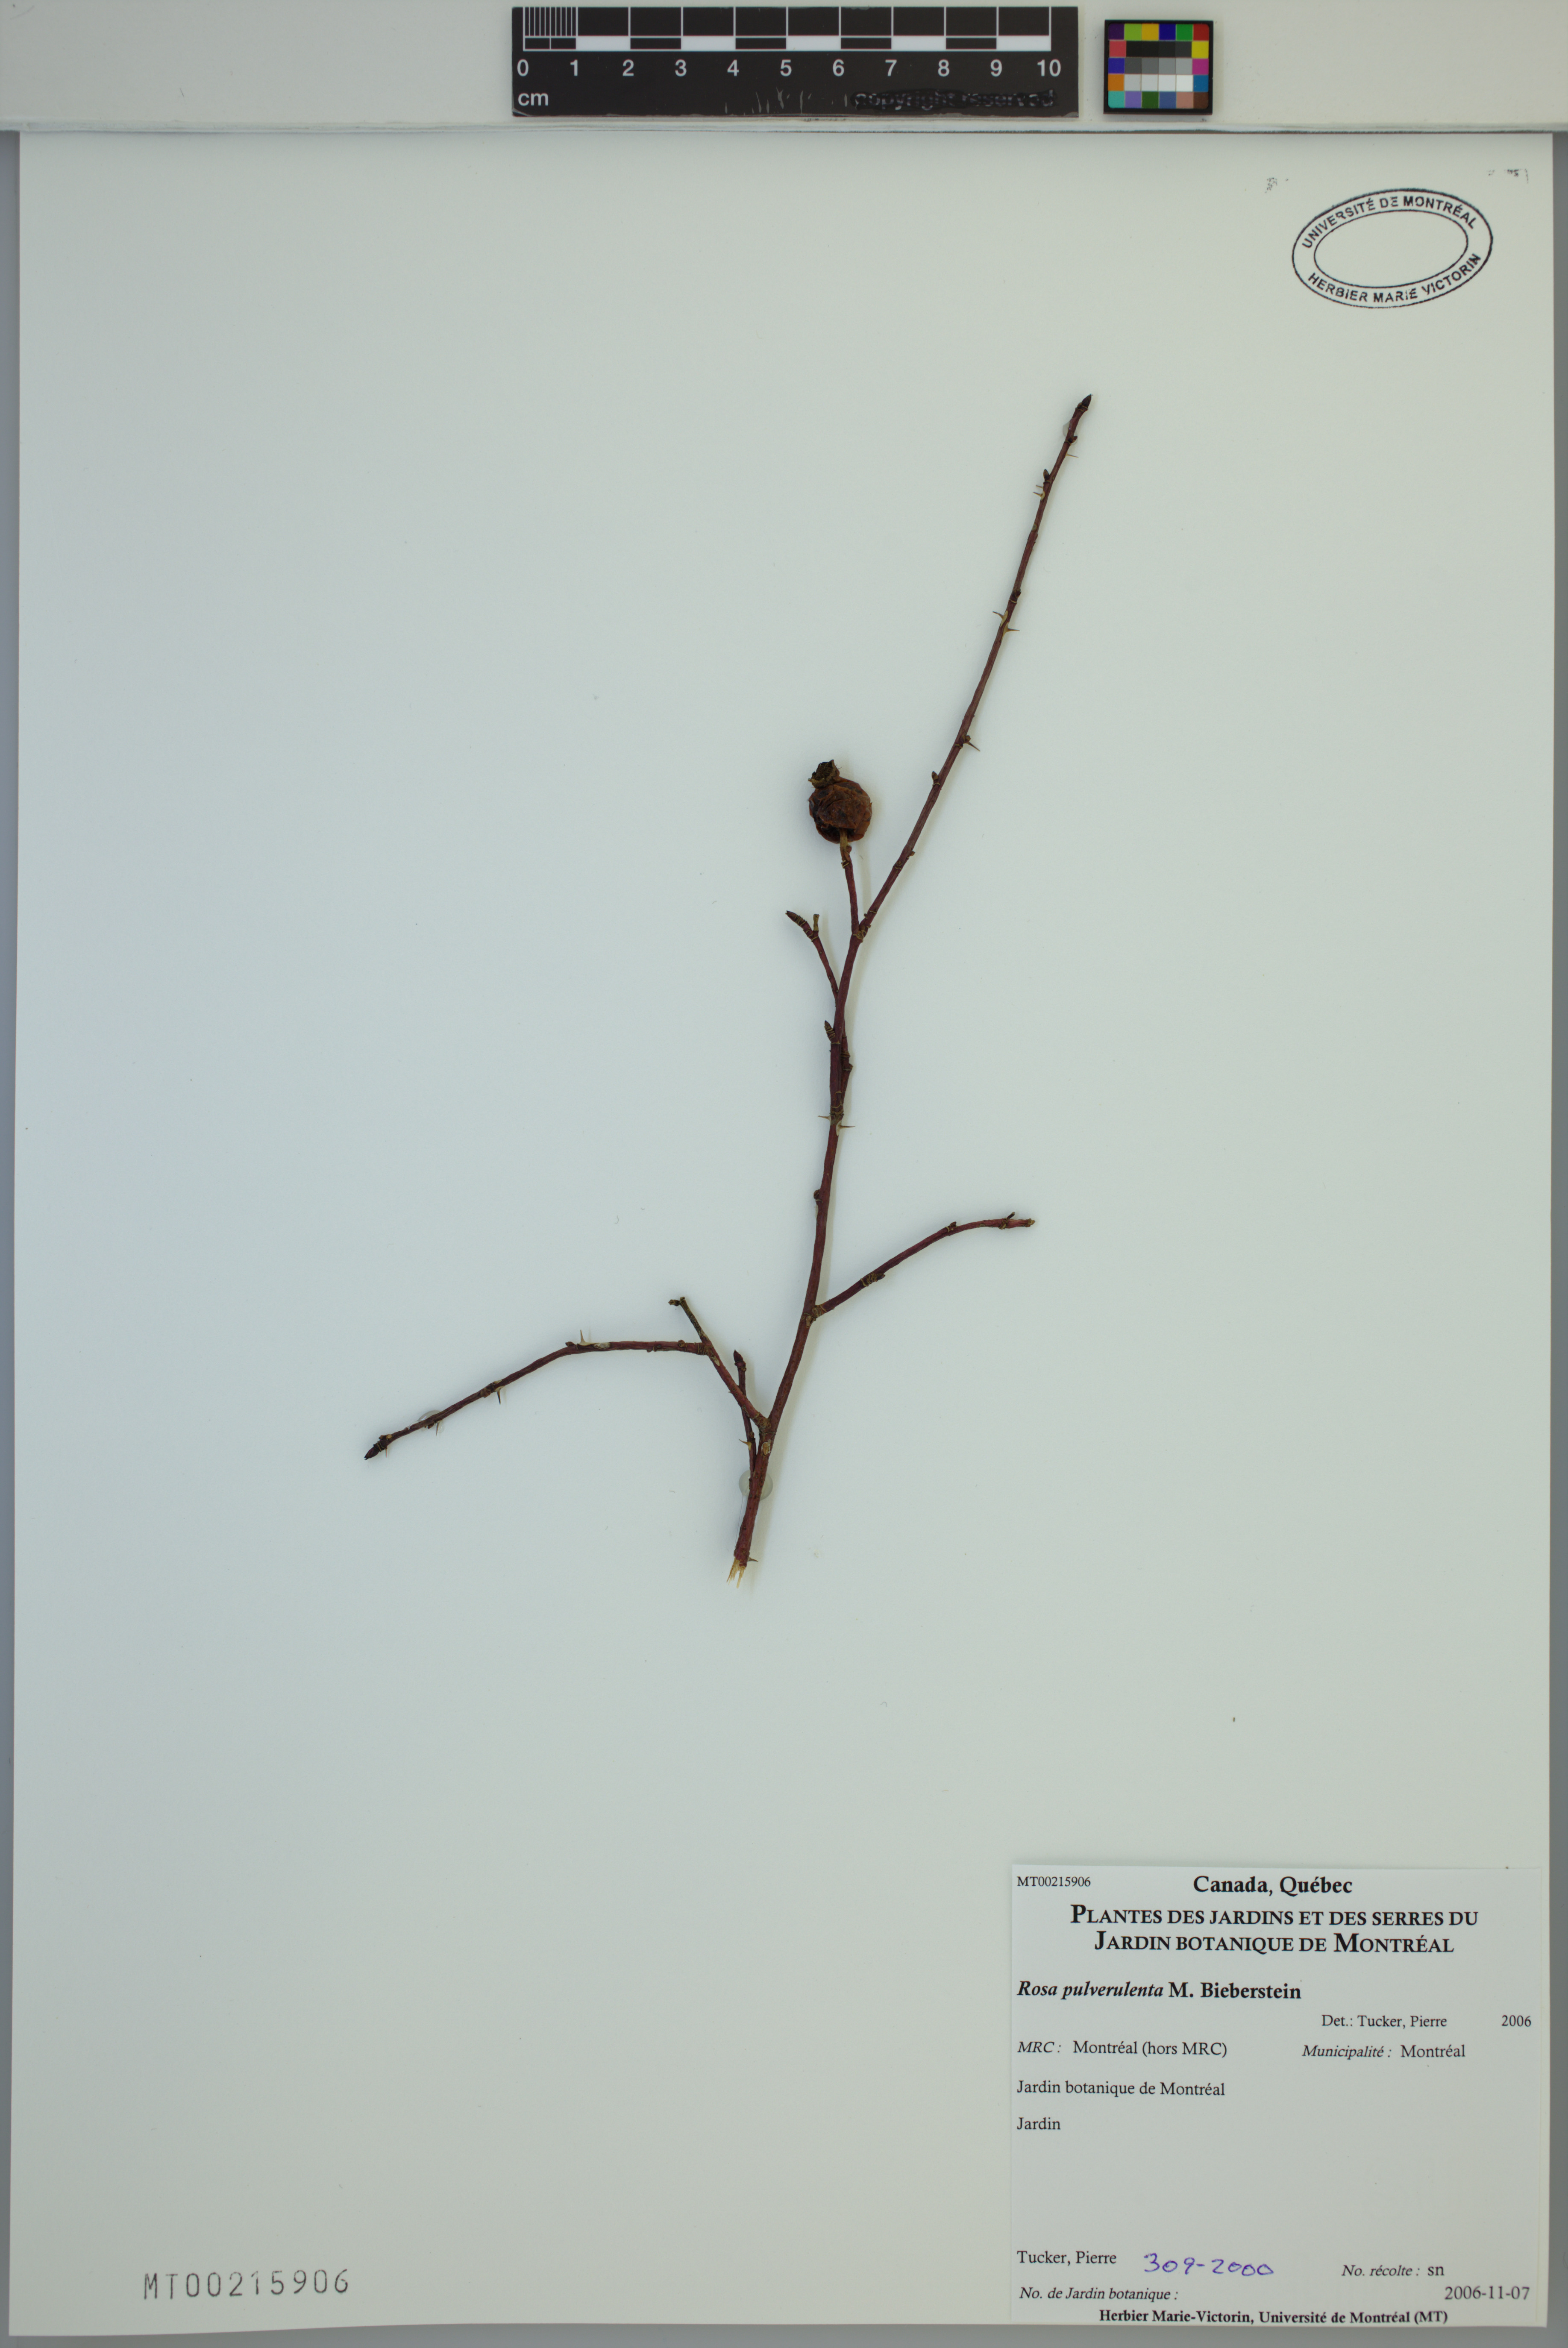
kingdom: Plantae
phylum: Tracheophyta
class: Magnoliopsida
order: Rosales
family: Rosaceae
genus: Rosa
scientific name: Rosa pulverulenta
